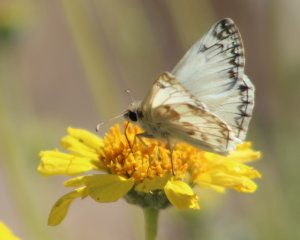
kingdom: Animalia
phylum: Arthropoda
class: Insecta
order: Lepidoptera
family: Hesperiidae
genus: Heliopetes
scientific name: Heliopetes ericetorum
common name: Northern White-Skipper
